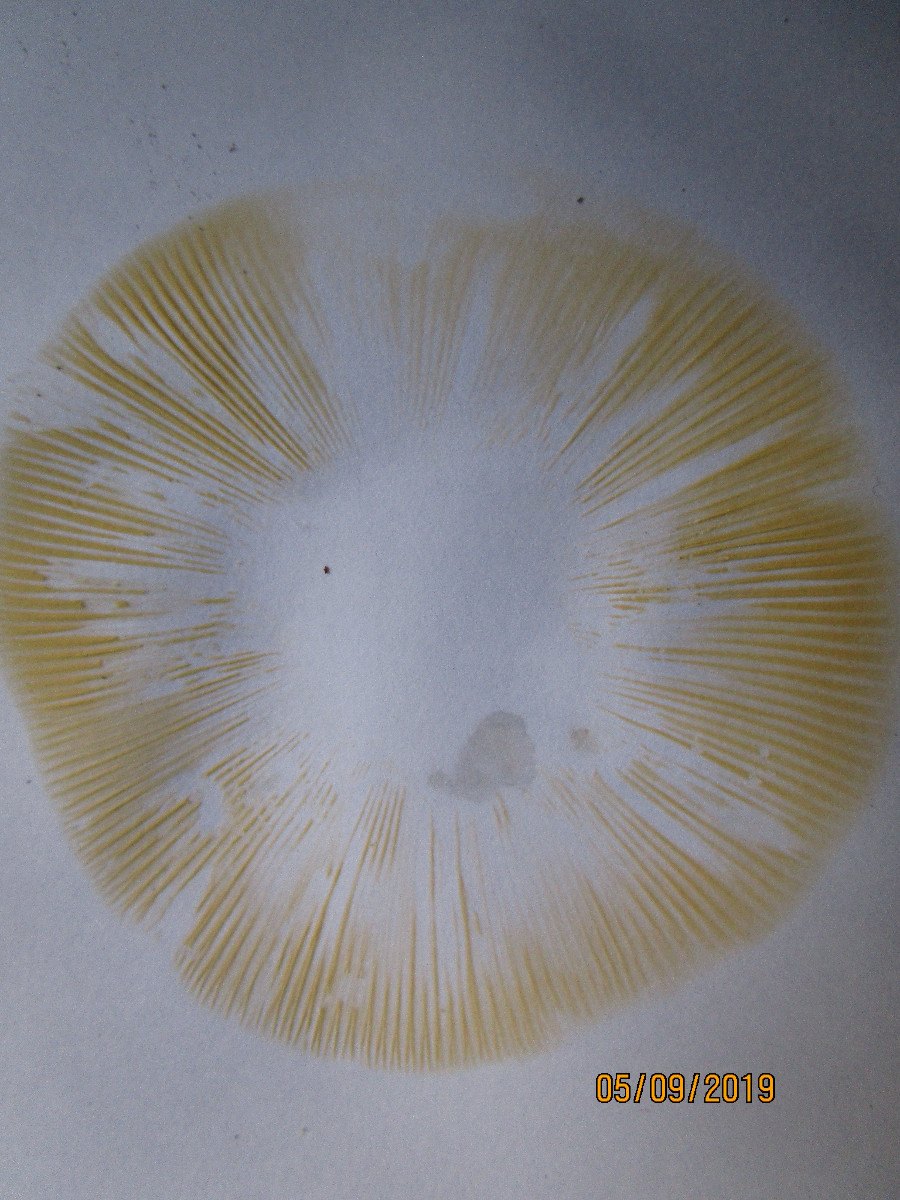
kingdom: Fungi
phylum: Basidiomycota
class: Agaricomycetes
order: Russulales
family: Russulaceae
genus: Russula
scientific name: Russula badia
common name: peber-skørhat
